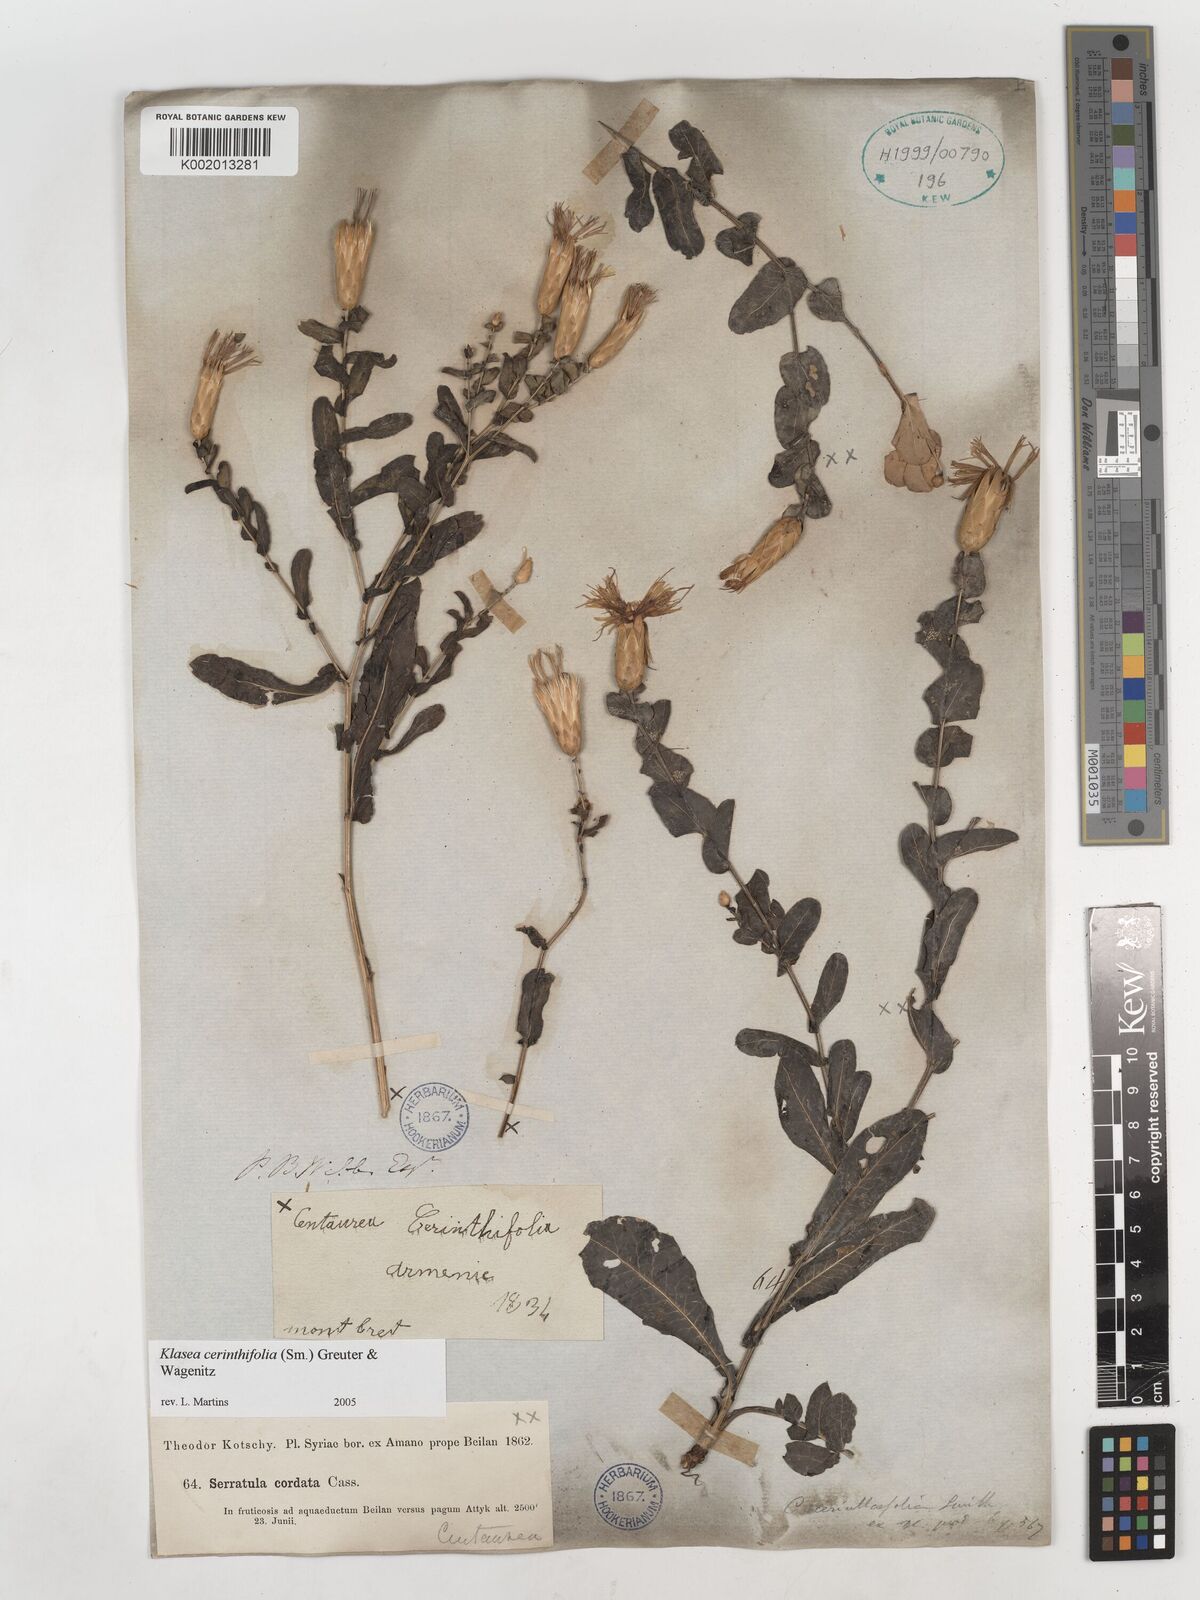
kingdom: Plantae
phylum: Tracheophyta
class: Magnoliopsida
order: Asterales
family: Asteraceae
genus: Klasea
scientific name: Klasea cerinthifolia
